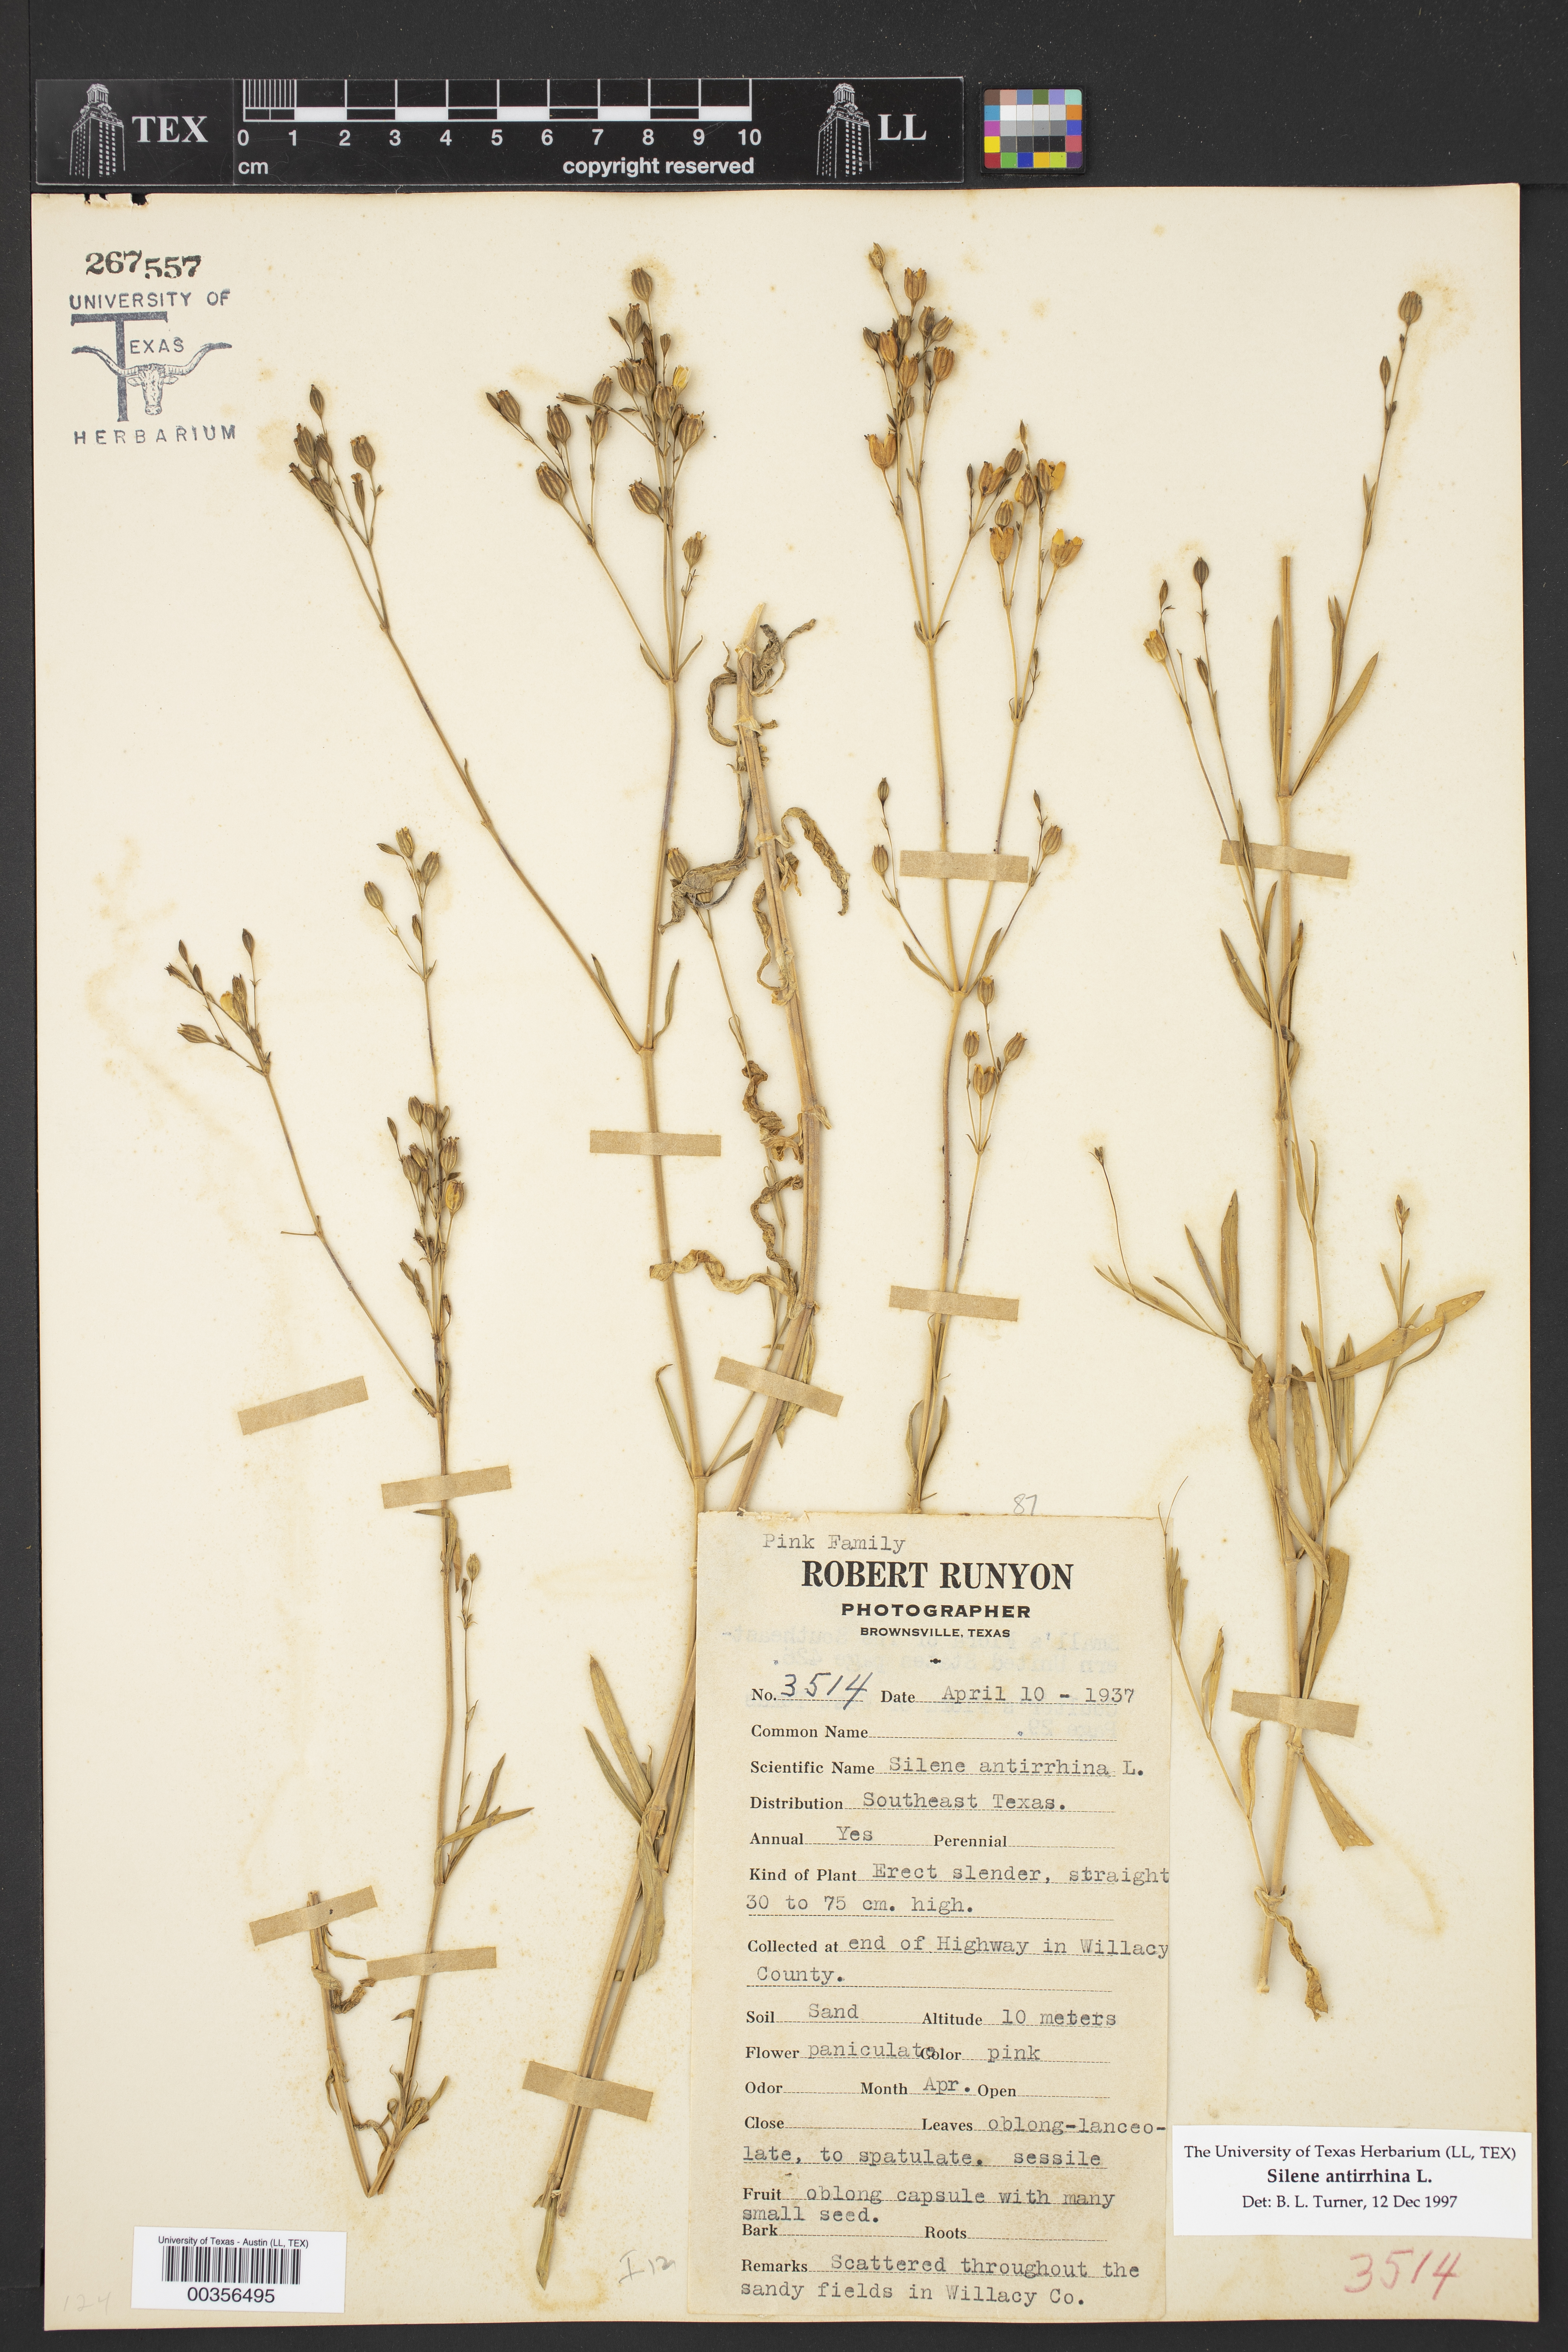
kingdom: Plantae
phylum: Tracheophyta
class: Magnoliopsida
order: Caryophyllales
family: Caryophyllaceae
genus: Silene
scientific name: Silene antirrhina
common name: Sleepy catchfly
